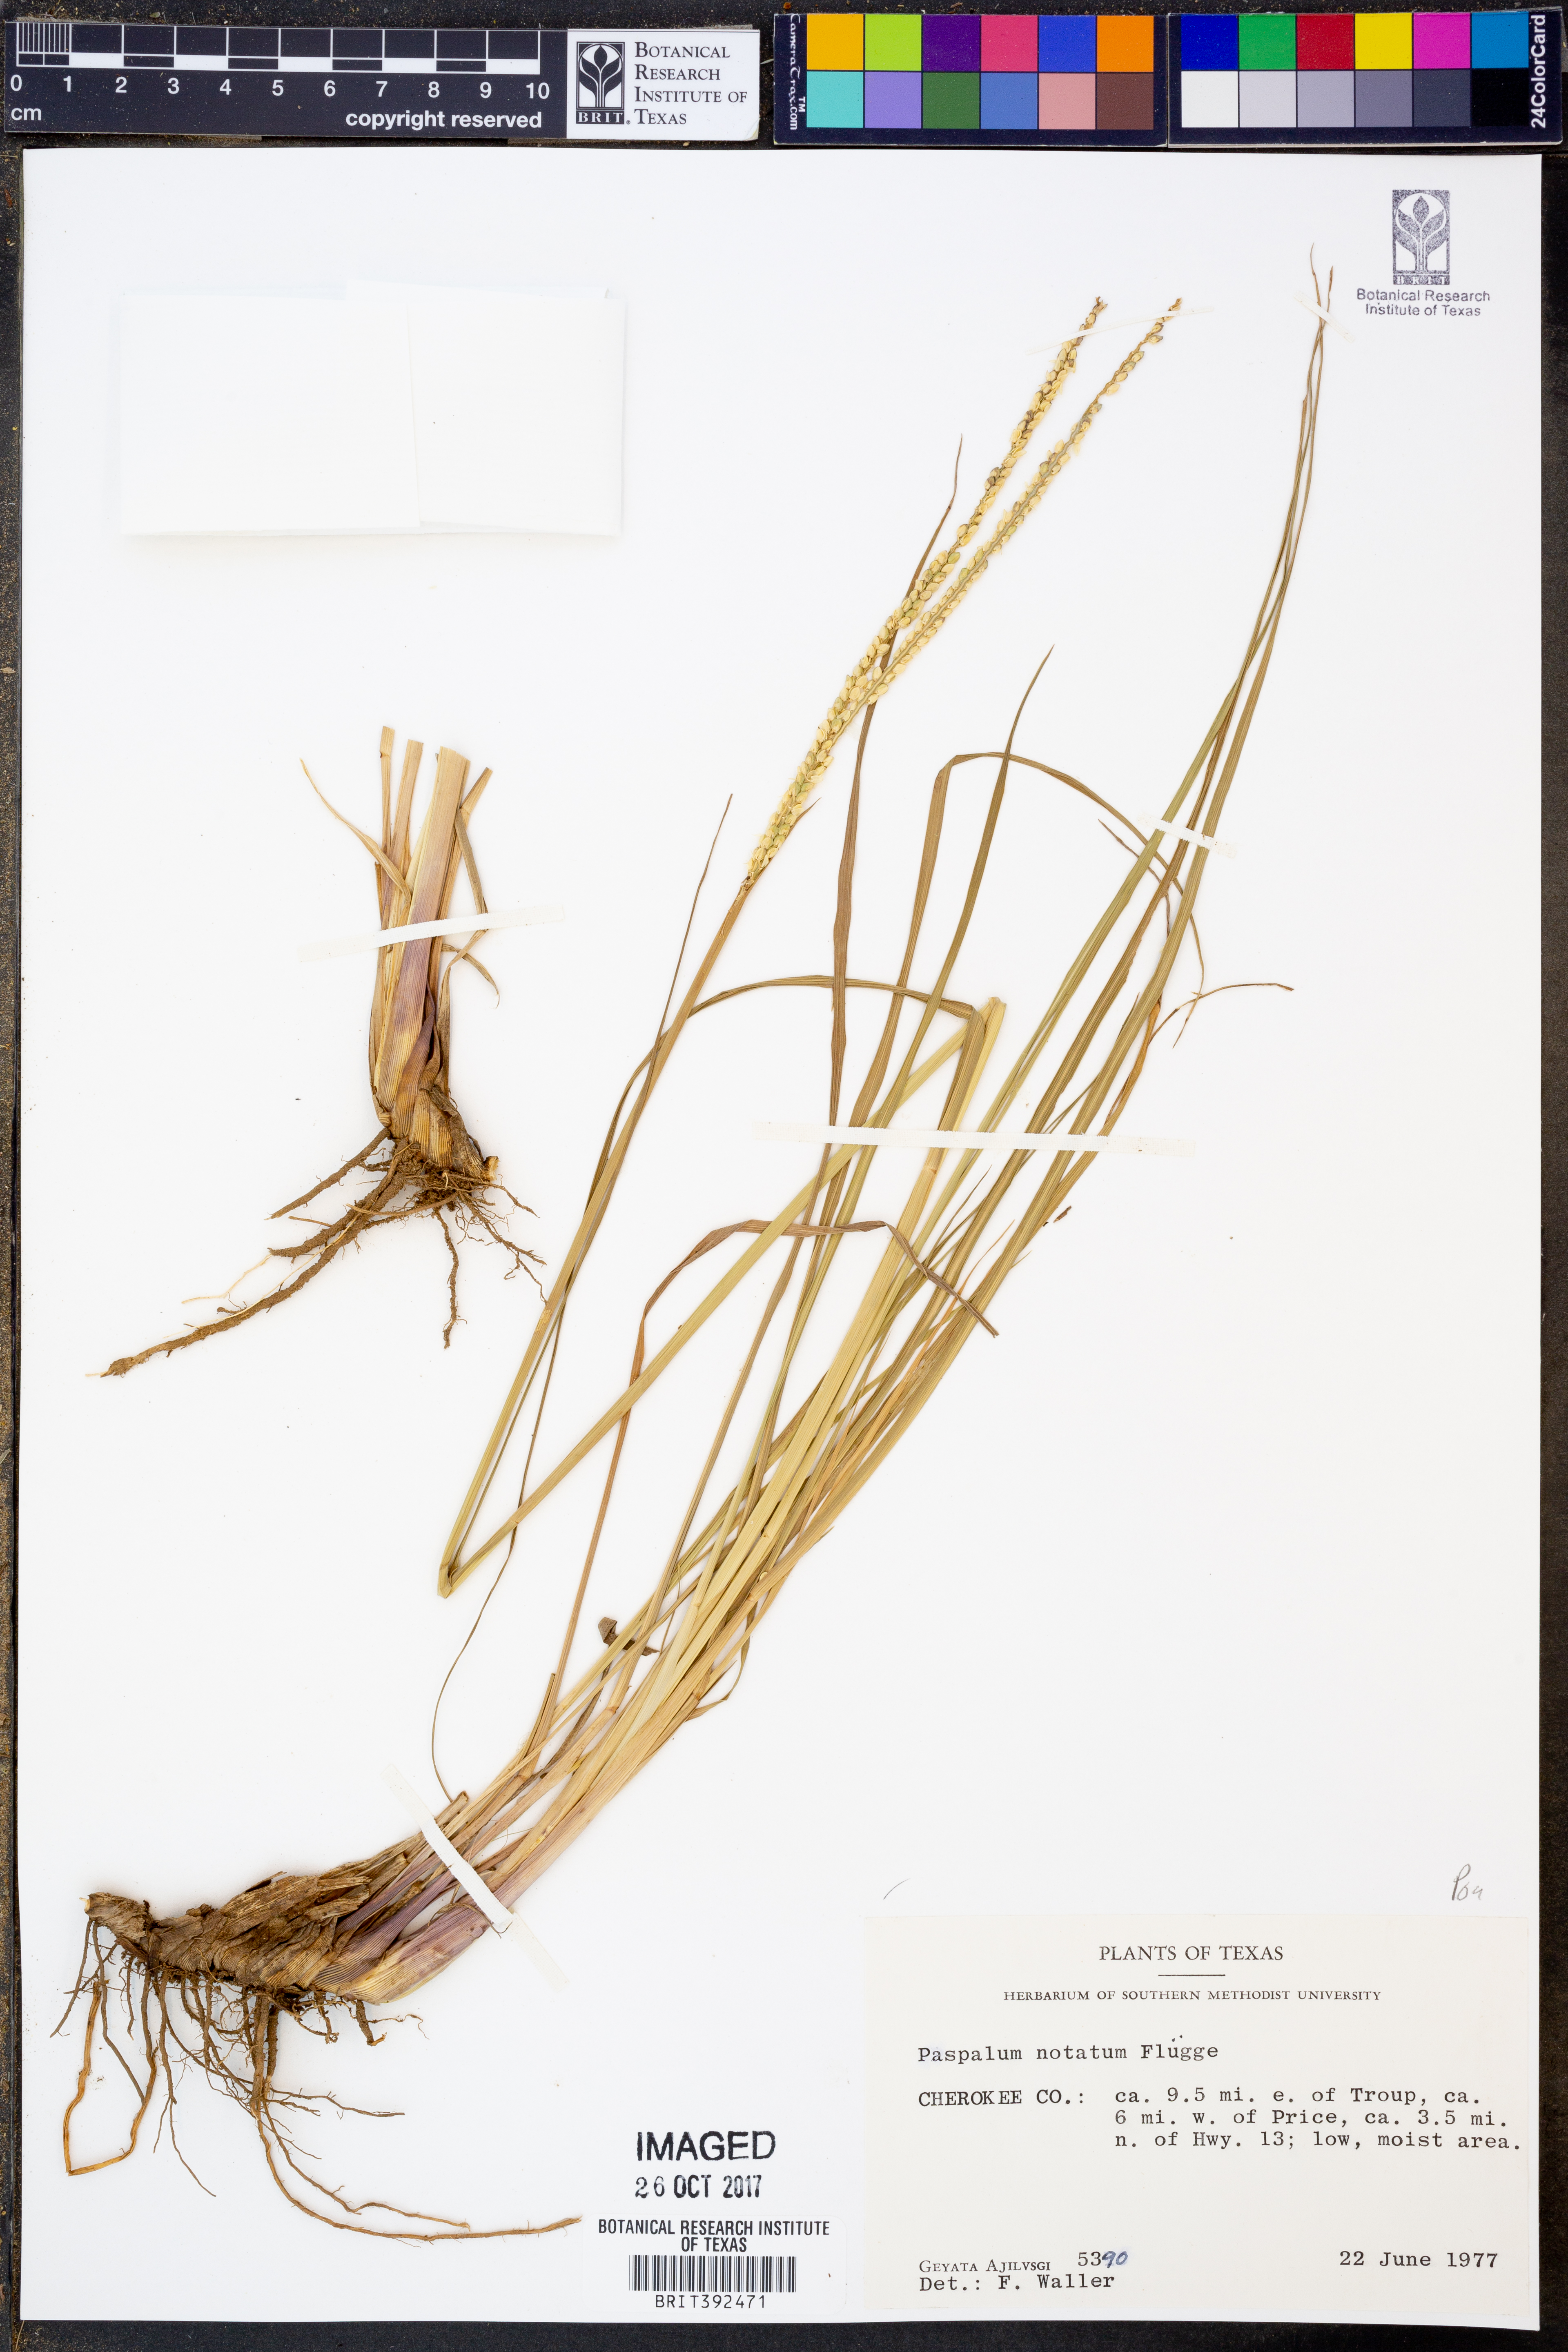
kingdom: Plantae
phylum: Tracheophyta
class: Liliopsida
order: Poales
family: Poaceae
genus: Paspalum
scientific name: Paspalum notatum
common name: Bahiagrass
